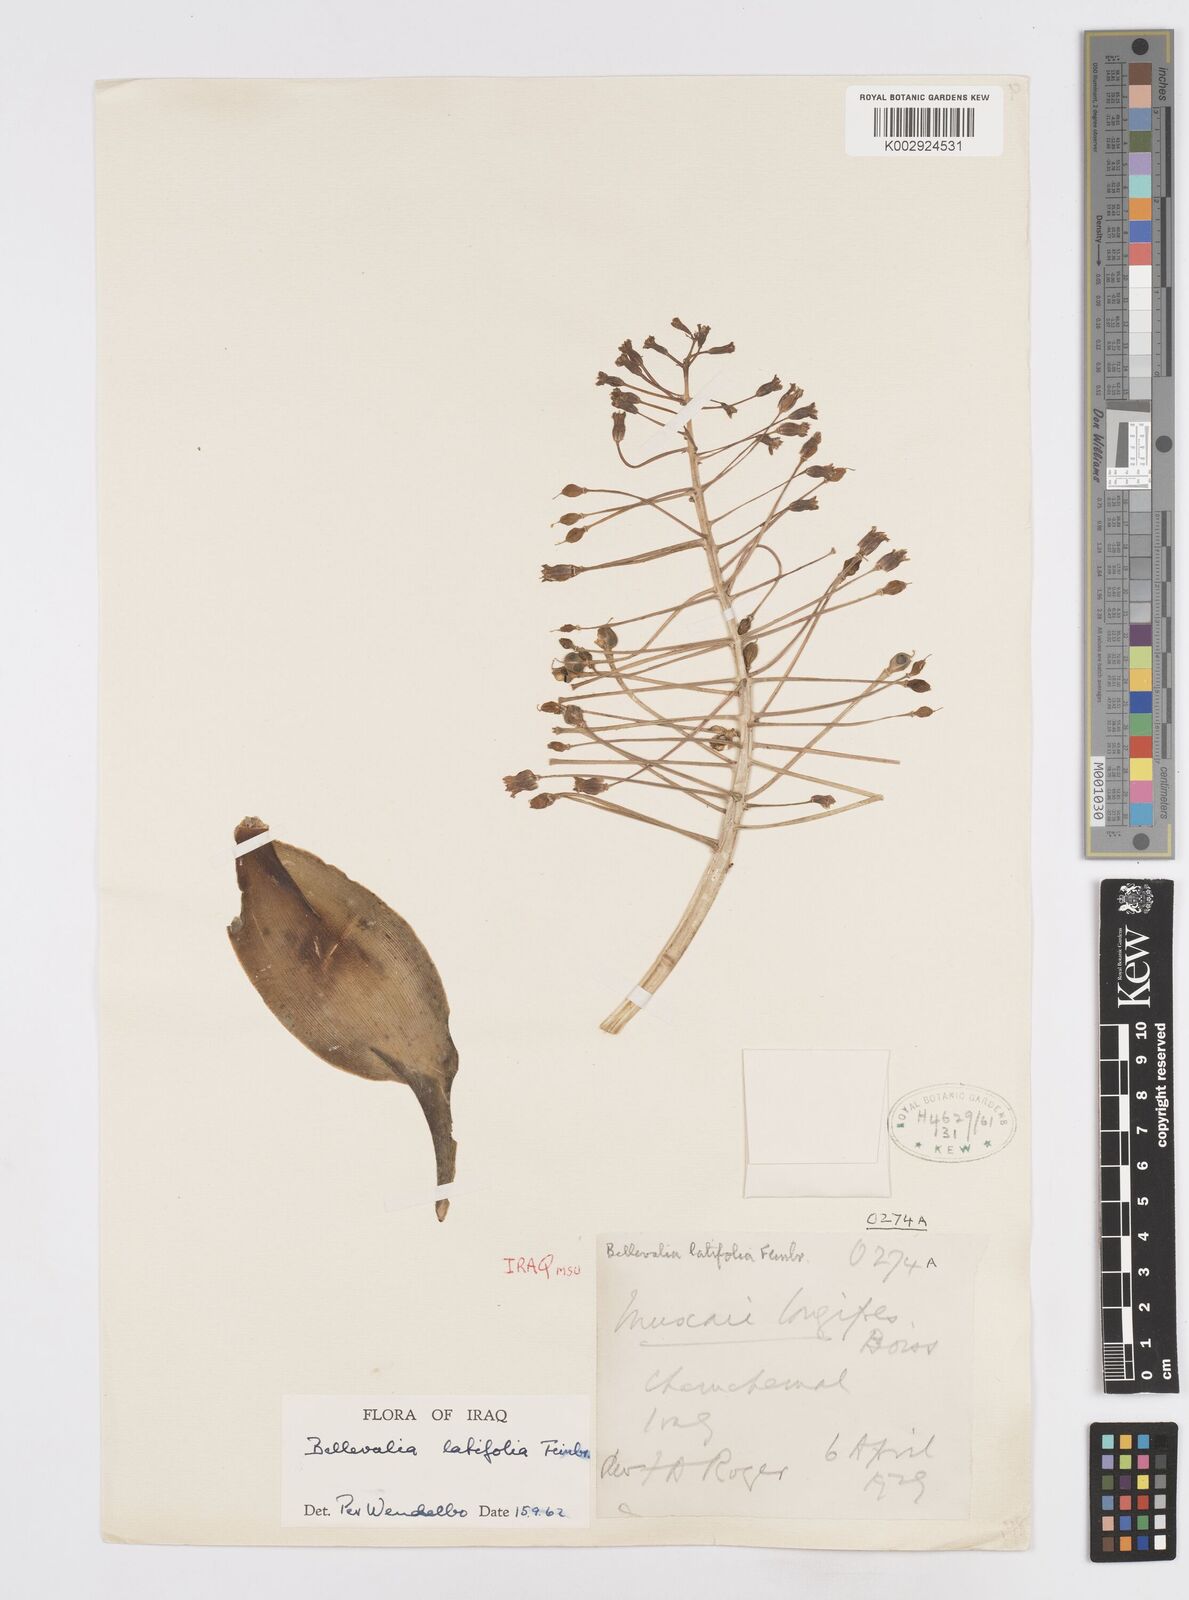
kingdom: Plantae
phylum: Tracheophyta
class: Liliopsida
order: Asparagales
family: Asparagaceae
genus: Bellevalia
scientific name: Bellevalia olivieri
